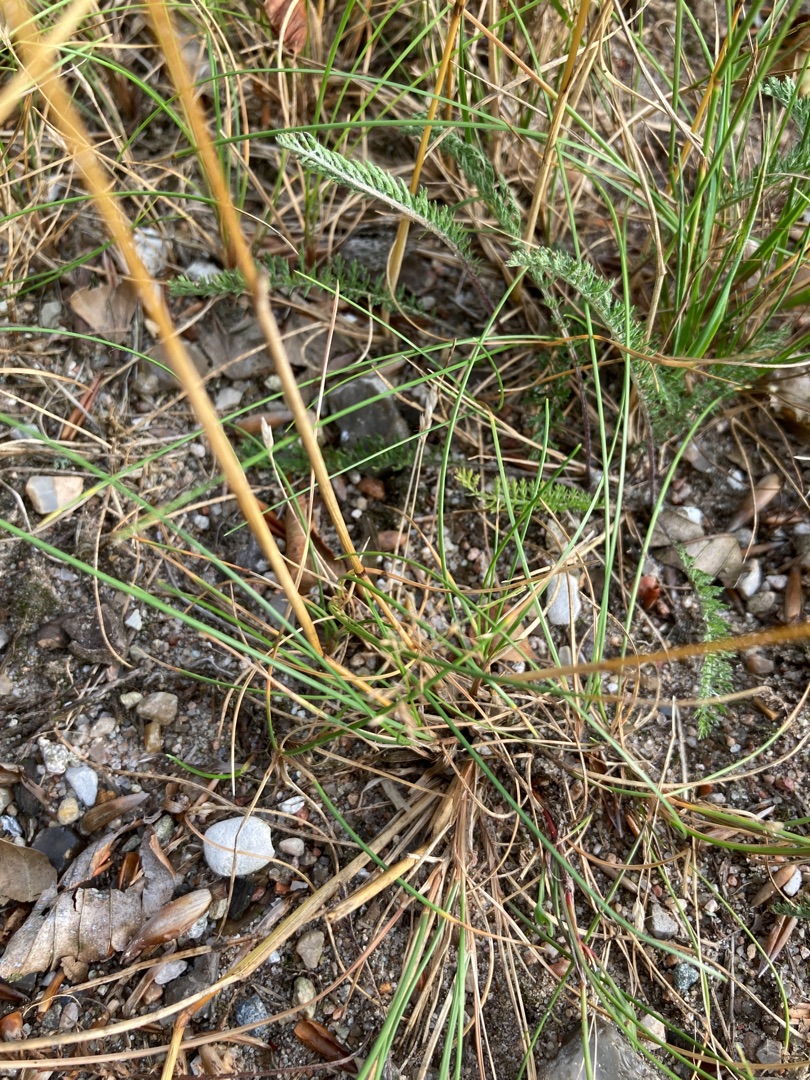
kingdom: Plantae
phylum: Tracheophyta
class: Liliopsida
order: Poales
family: Poaceae
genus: Festuca
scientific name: Festuca trachyphylla
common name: Bakke-svingel
